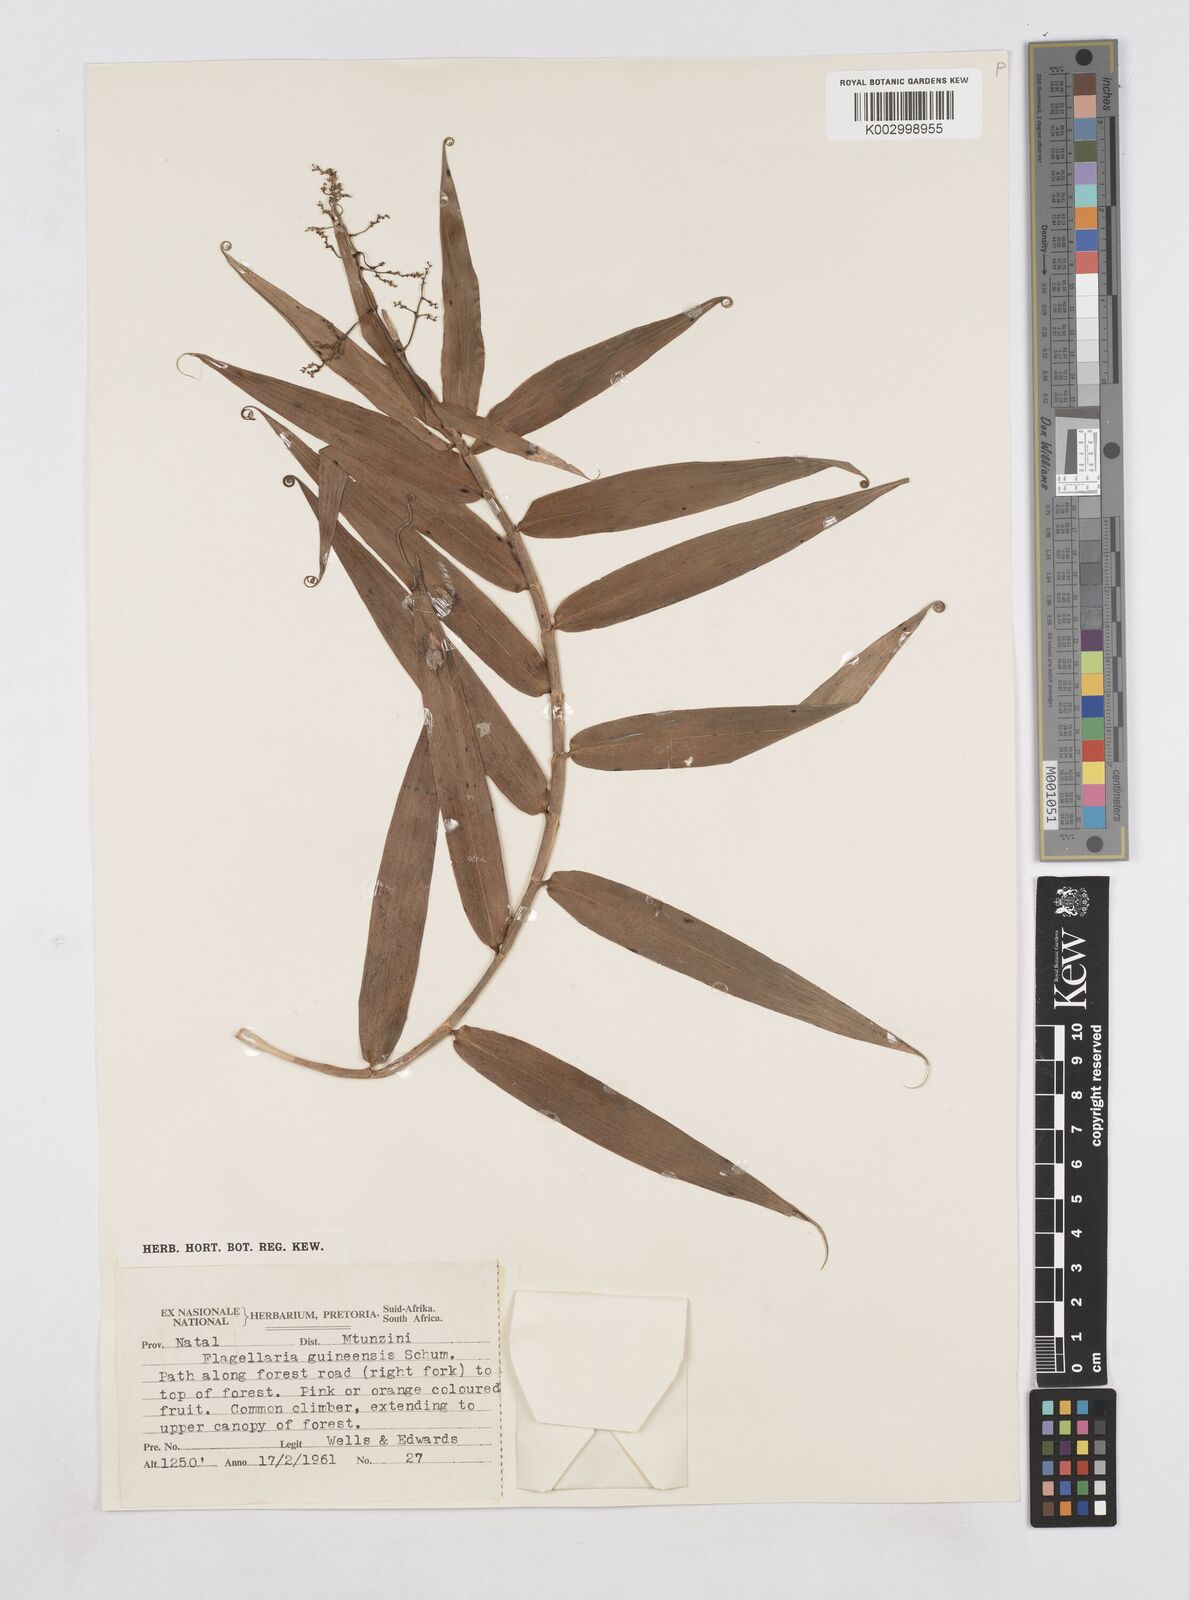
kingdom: Plantae
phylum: Tracheophyta
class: Liliopsida
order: Poales
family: Flagellariaceae
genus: Flagellaria
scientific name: Flagellaria guineensis
